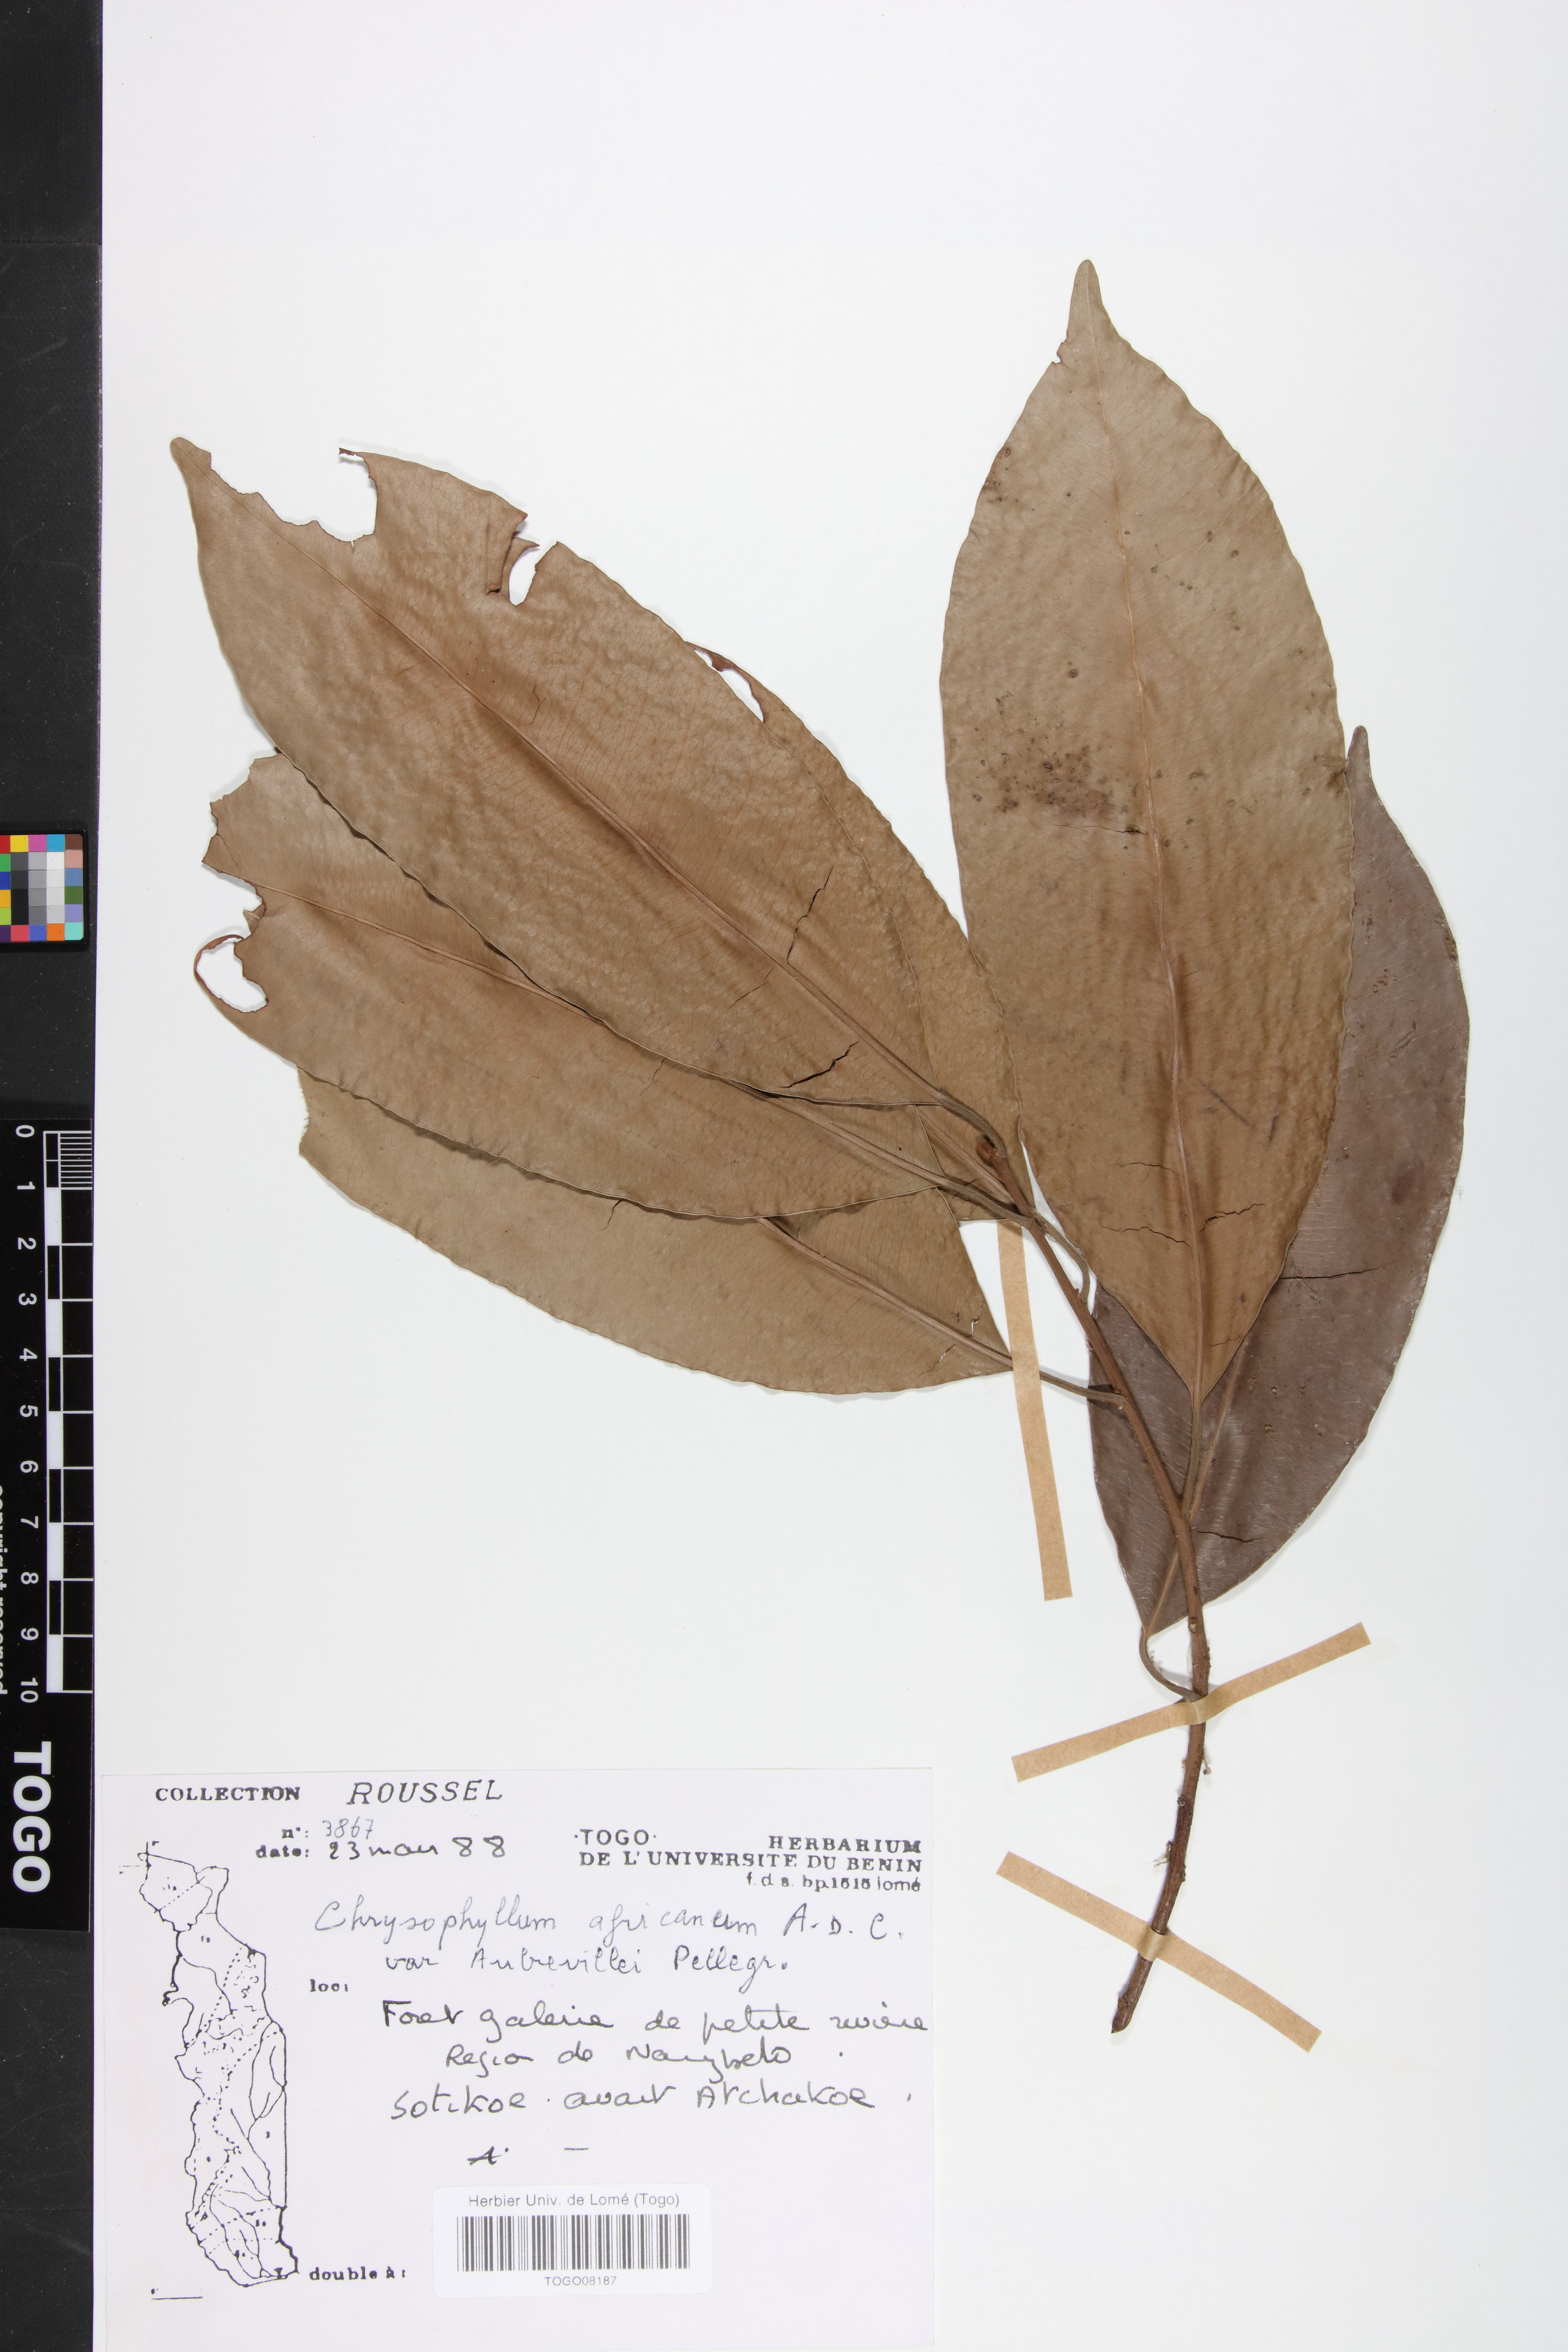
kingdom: Plantae
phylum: Tracheophyta
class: Magnoliopsida
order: Ericales
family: Sapotaceae
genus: Gambeya
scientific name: Gambeya africana
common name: African star apple
